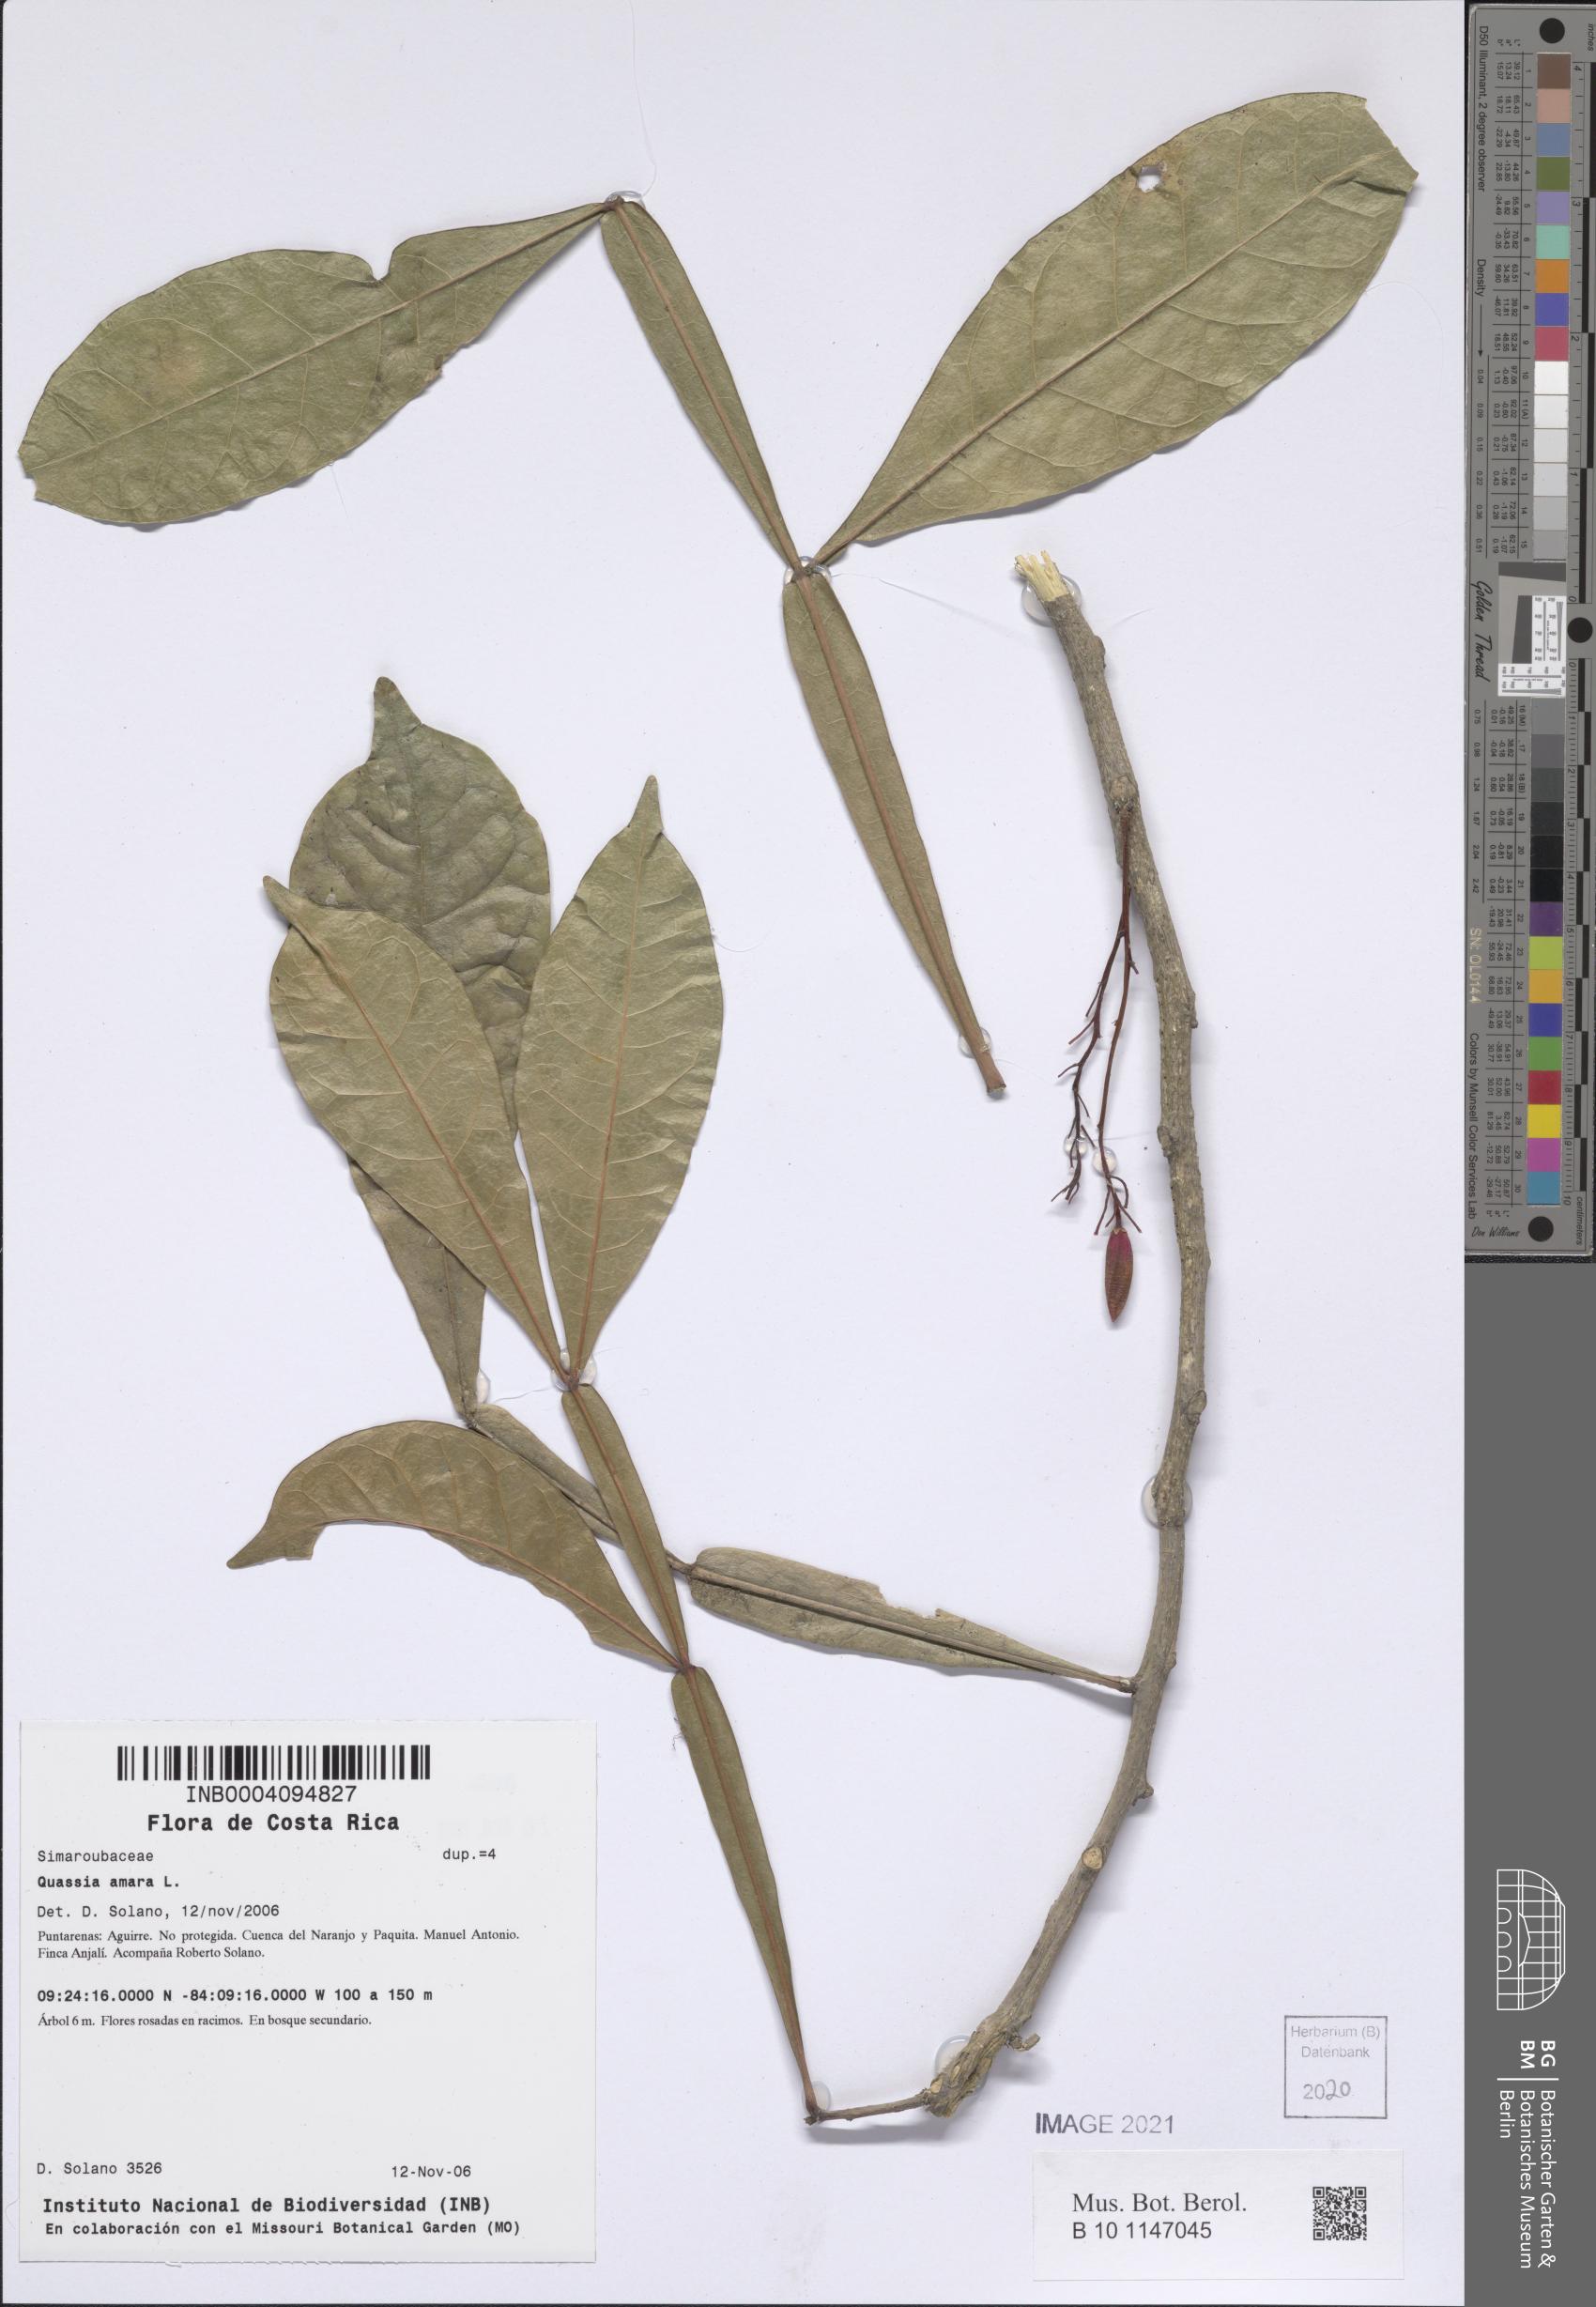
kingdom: Plantae
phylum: Tracheophyta
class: Magnoliopsida
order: Sapindales
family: Simaroubaceae
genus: Quassia
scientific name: Quassia amara
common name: Quassia
